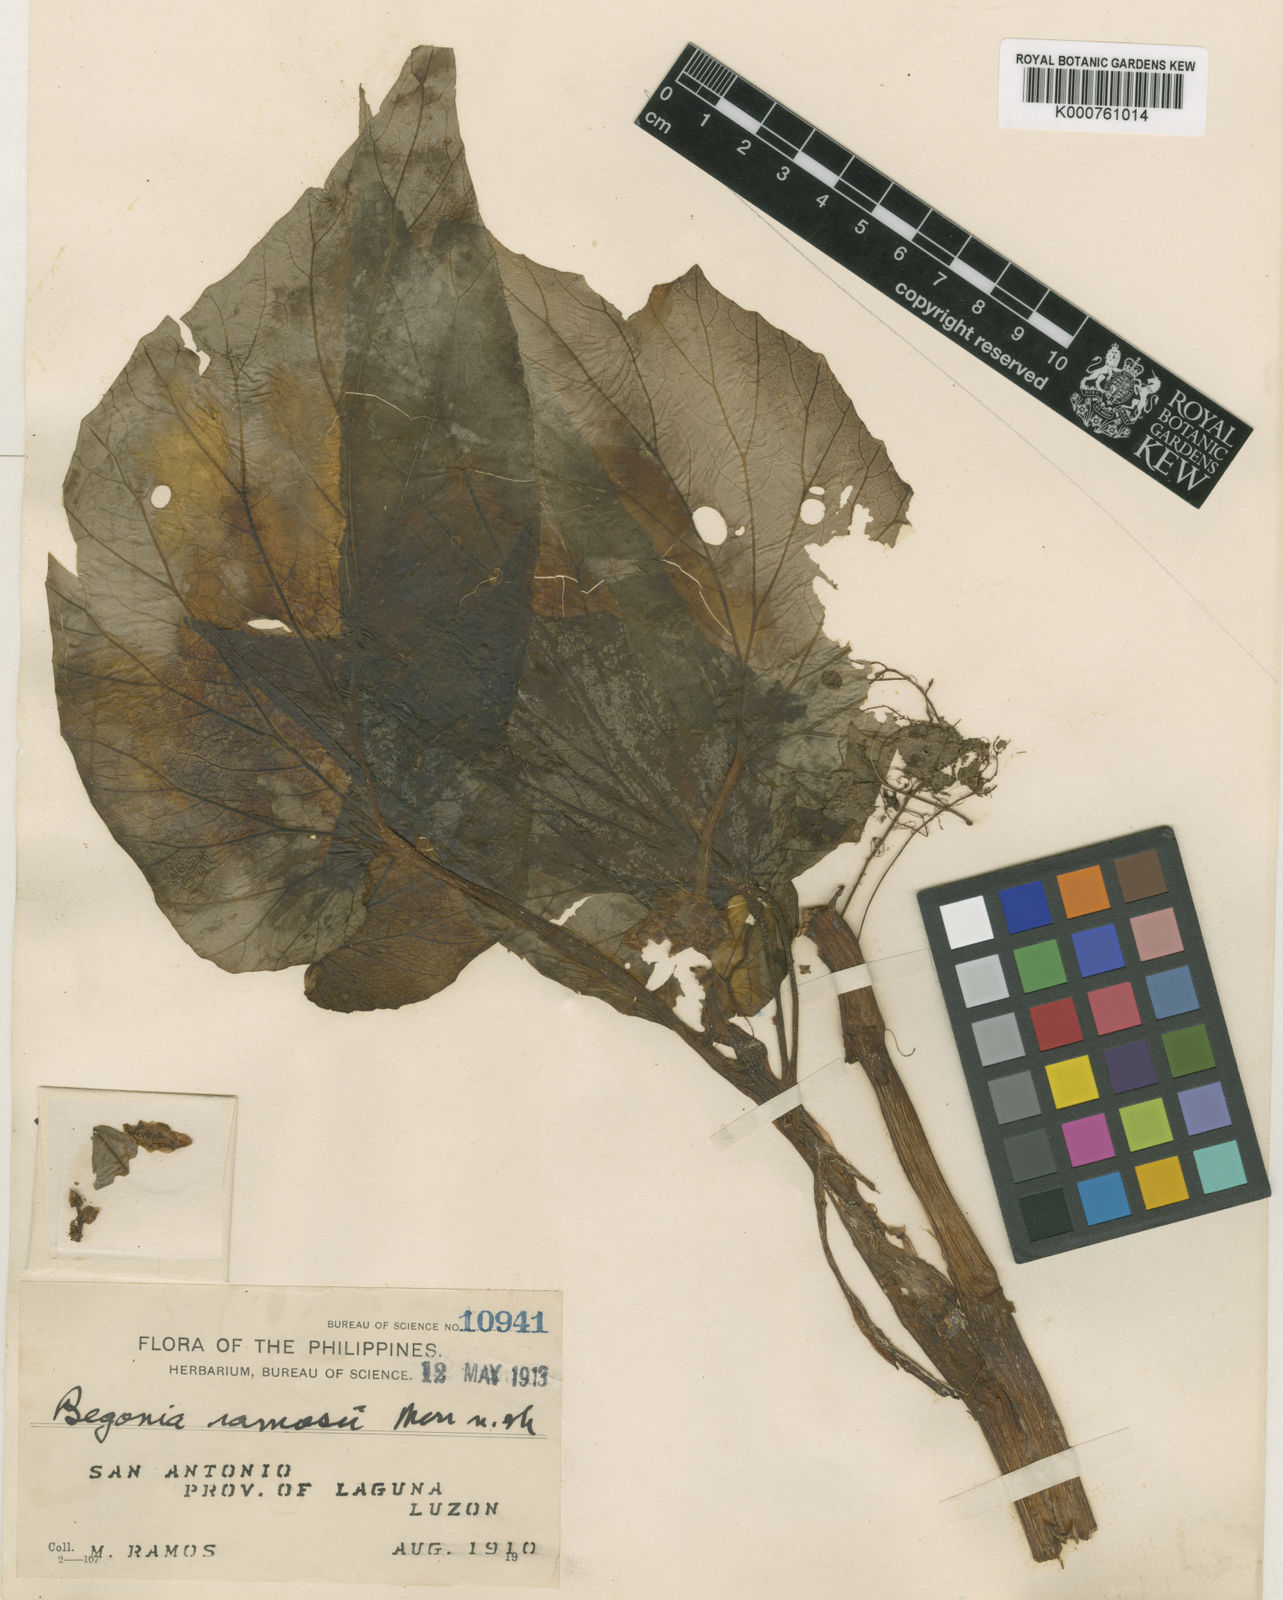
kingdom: Plantae
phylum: Tracheophyta
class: Magnoliopsida
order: Cucurbitales
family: Begoniaceae
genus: Begonia
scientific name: Begonia ramosii
